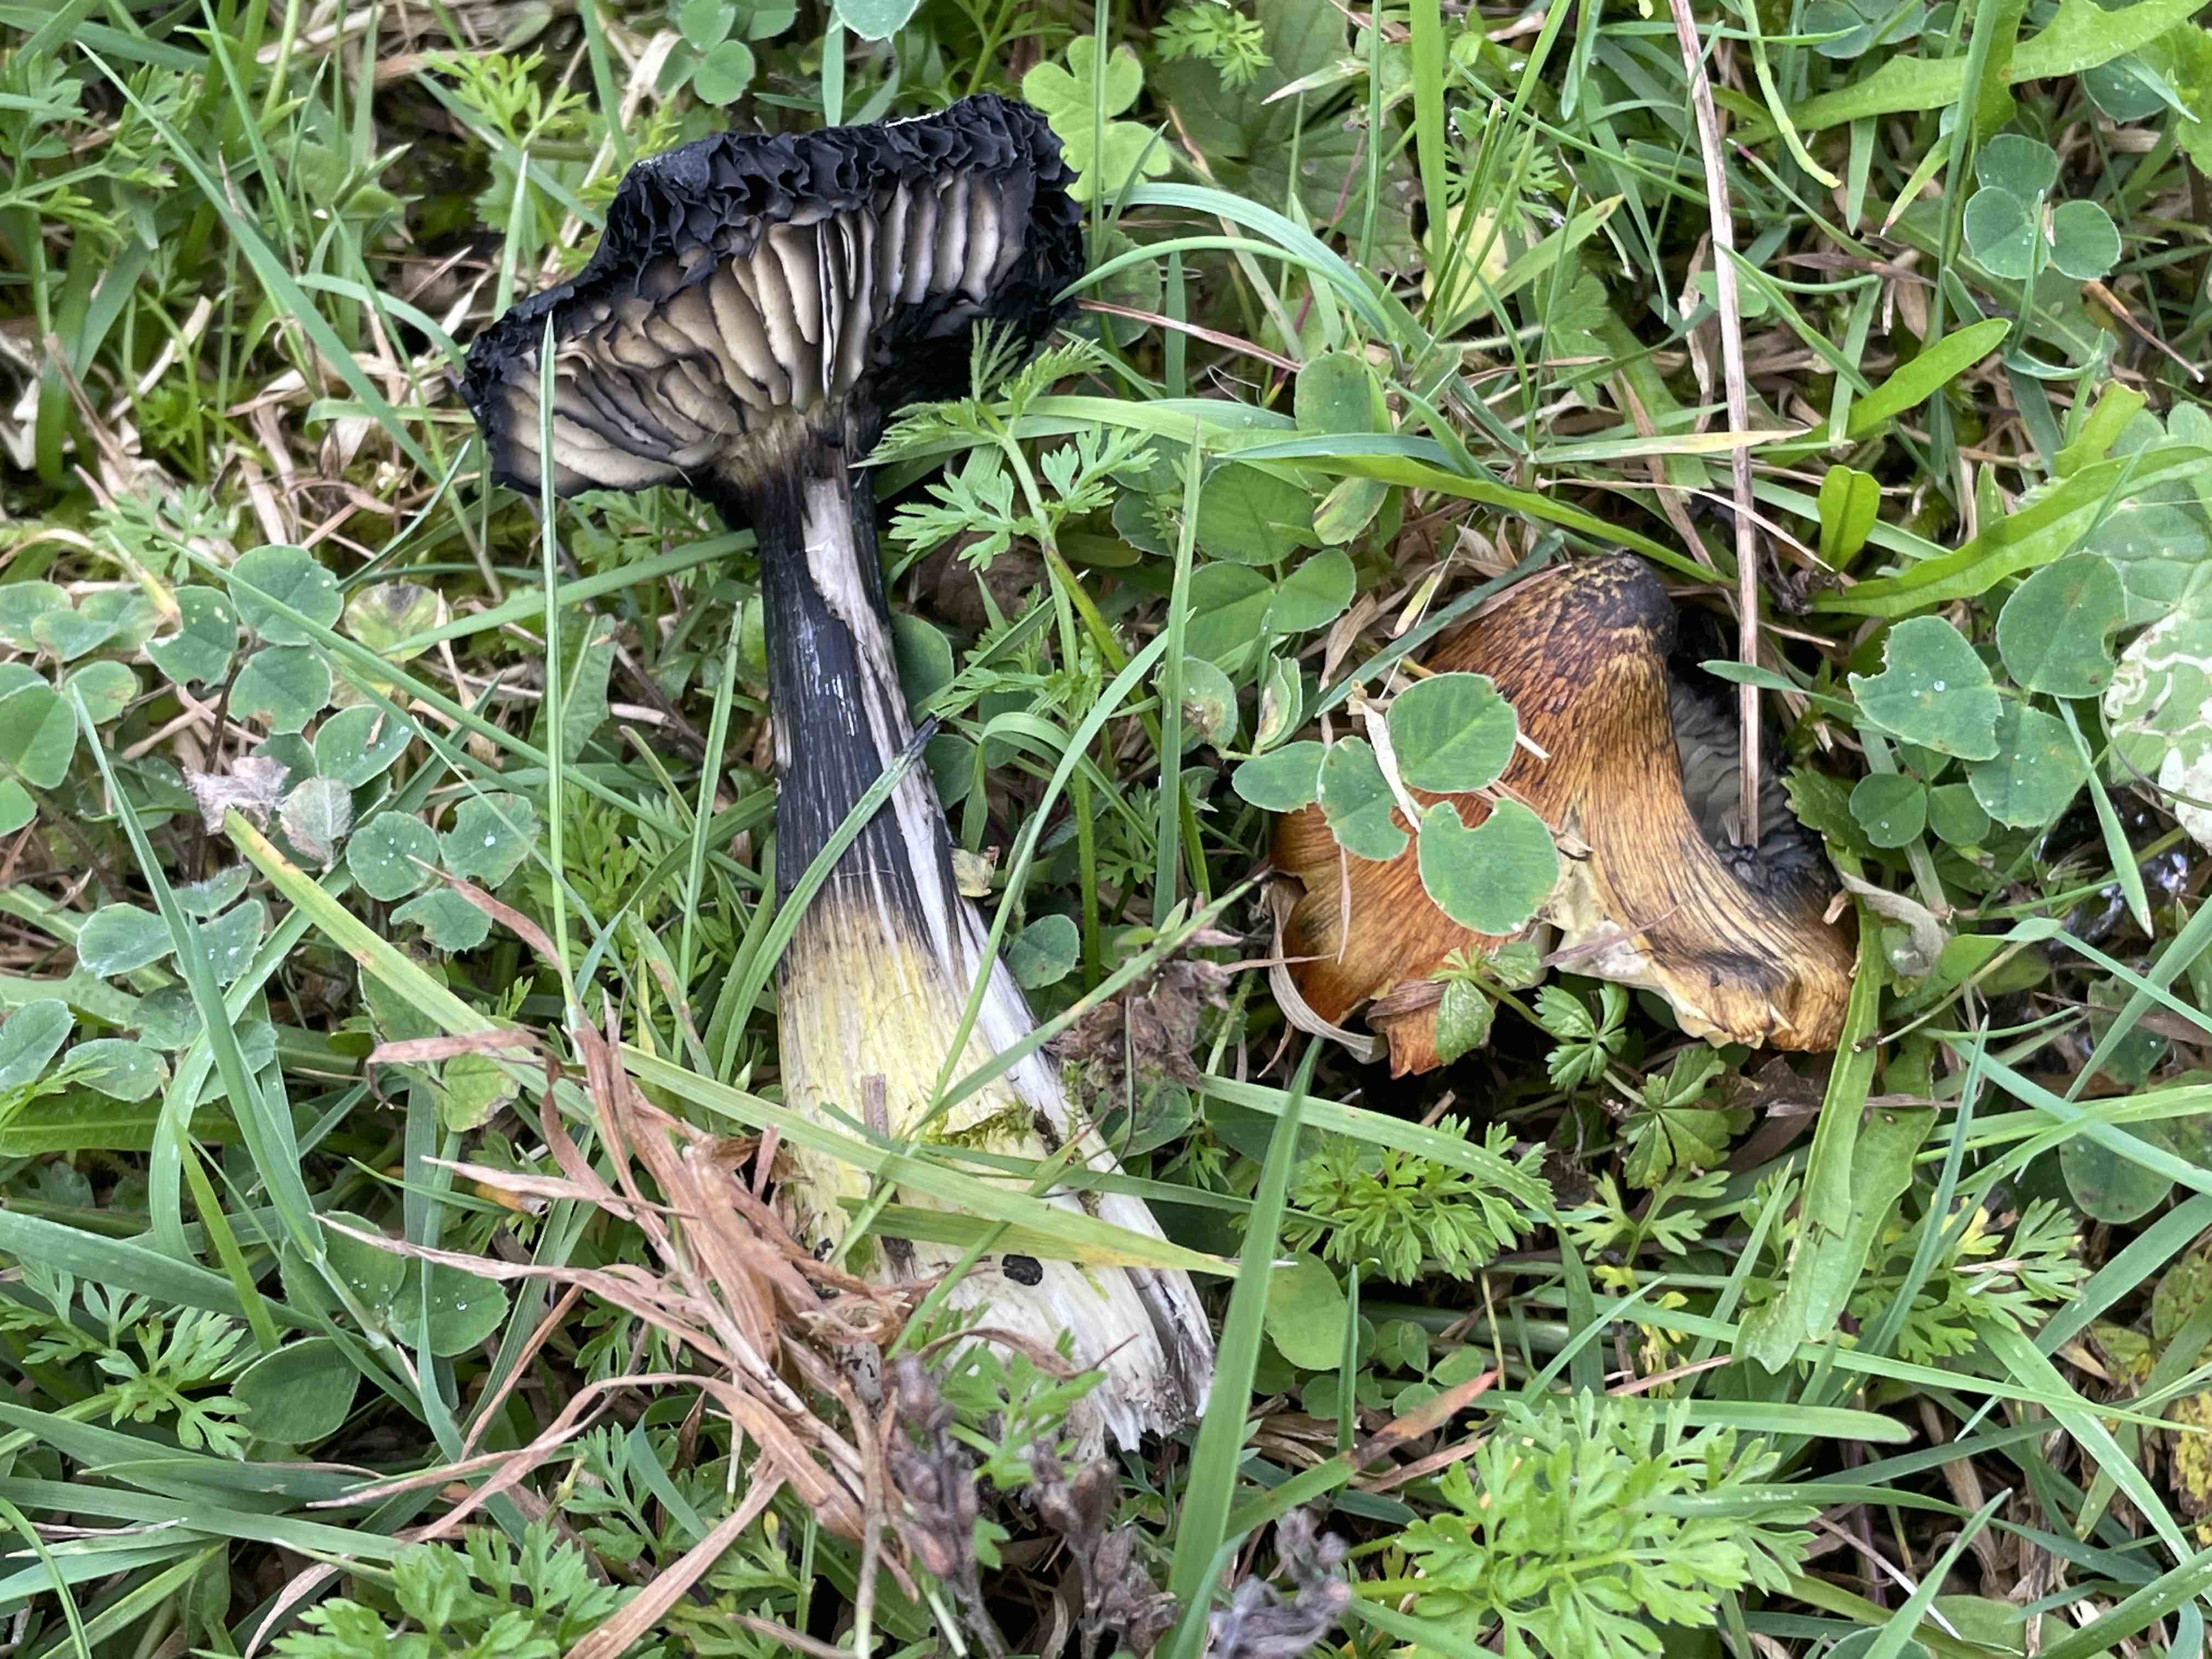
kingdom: Fungi
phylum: Basidiomycota
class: Agaricomycetes
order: Agaricales
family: Hygrophoraceae
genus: Hygrocybe
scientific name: Hygrocybe conica
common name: kegle-vokshat
